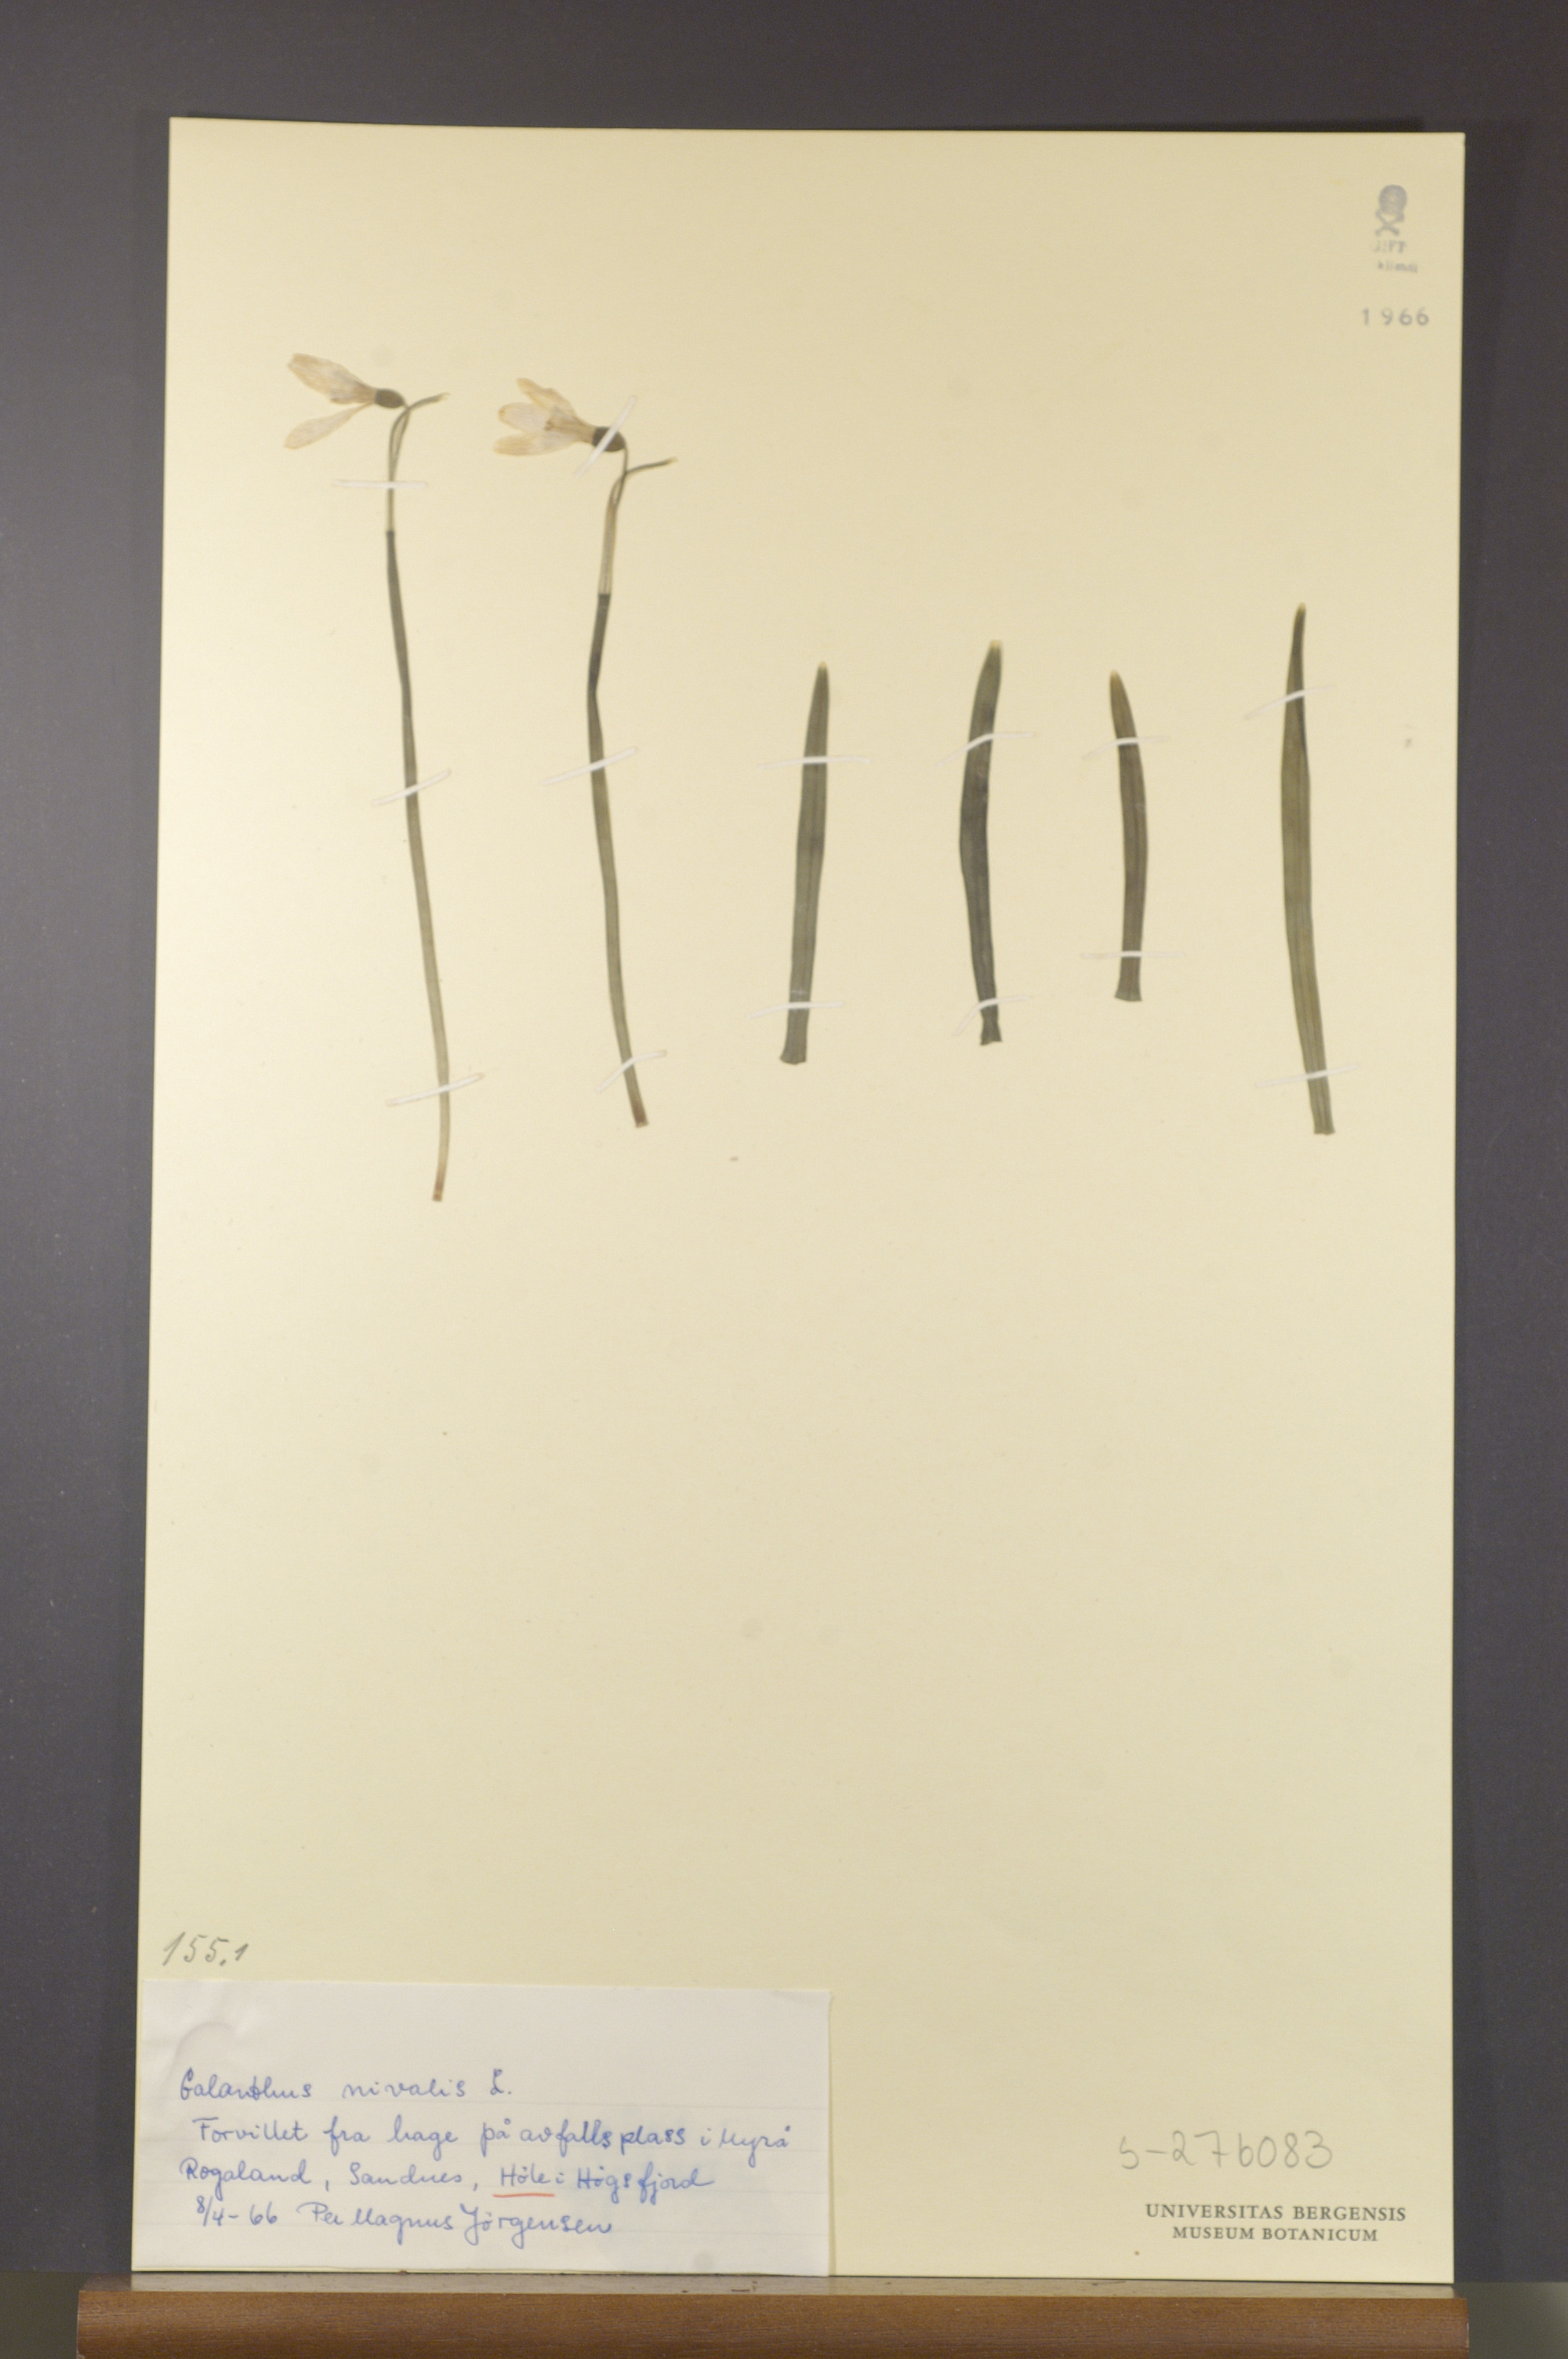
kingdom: Plantae
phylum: Tracheophyta
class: Liliopsida
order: Asparagales
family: Amaryllidaceae
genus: Galanthus
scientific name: Galanthus nivalis
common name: Snowdrop
